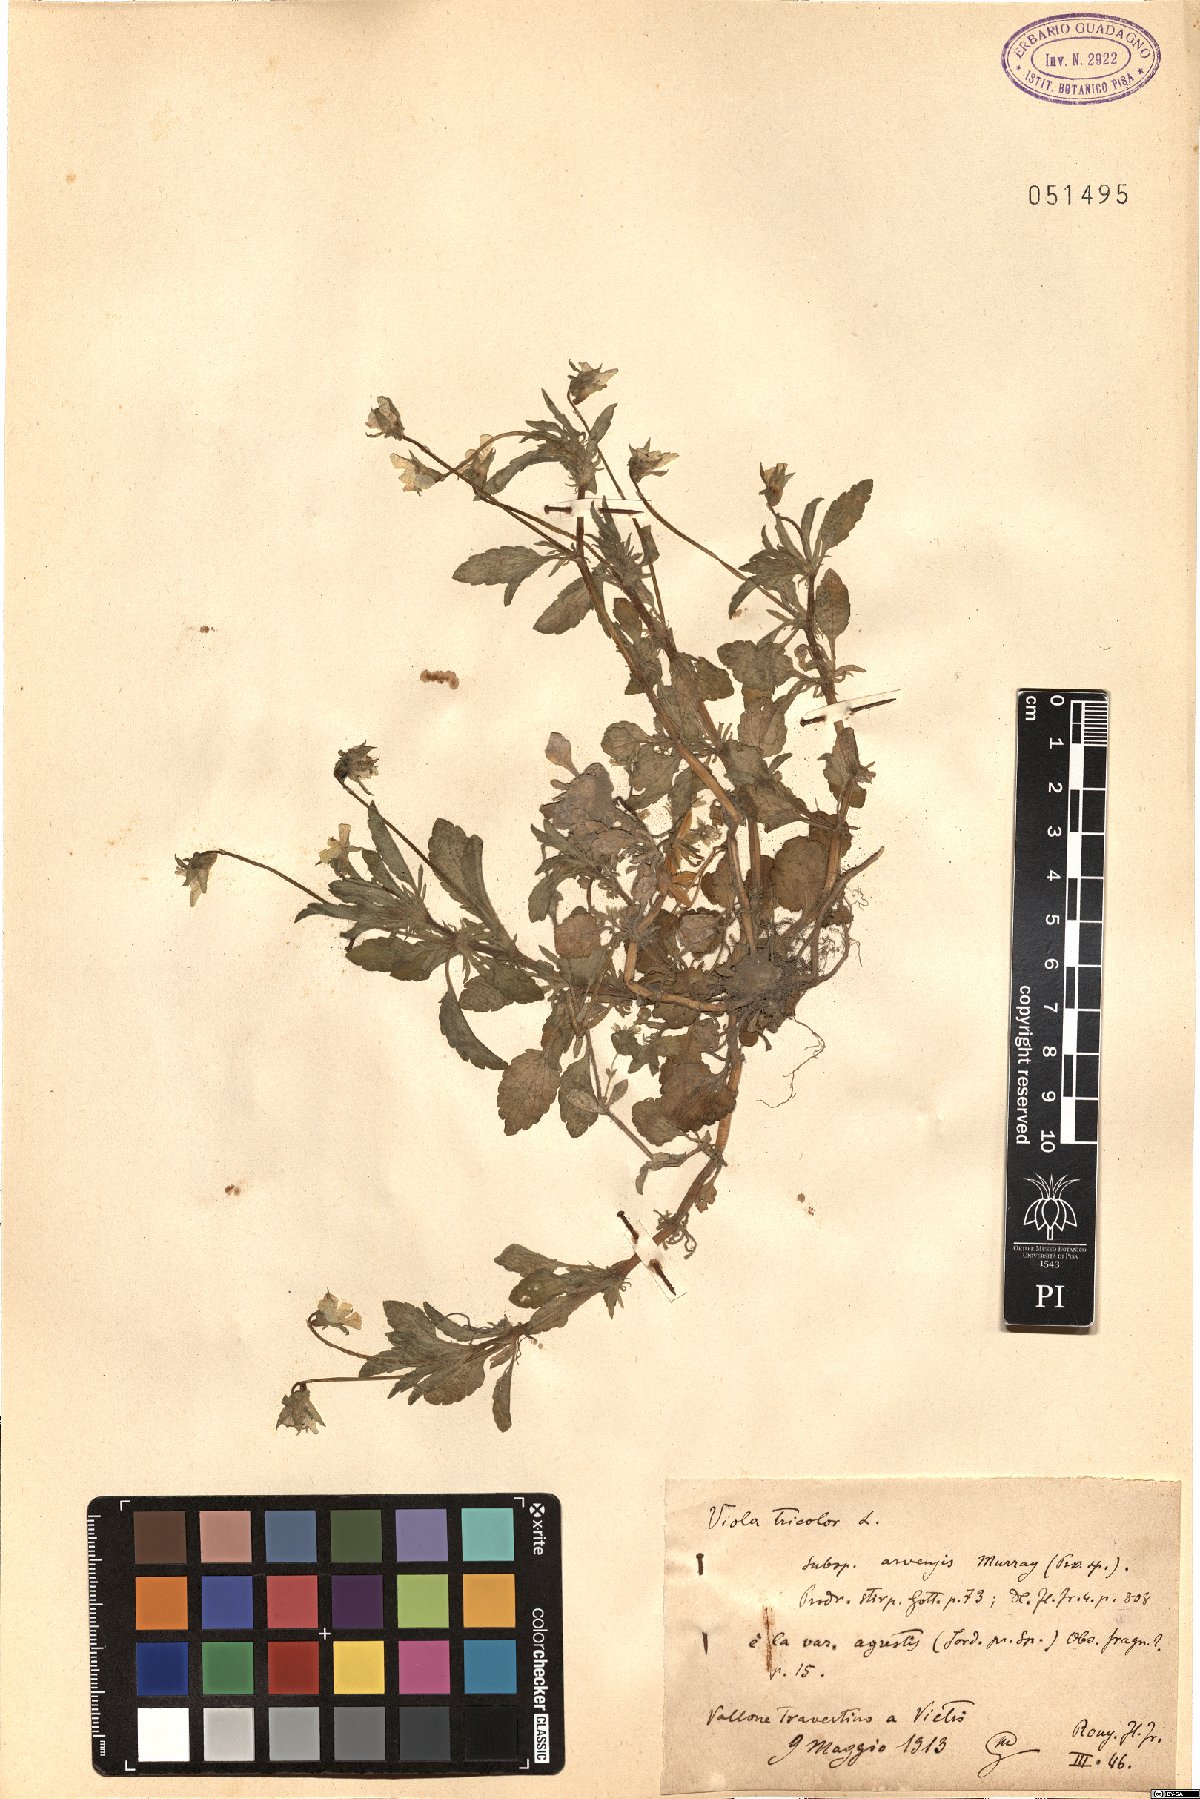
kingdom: Plantae
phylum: Tracheophyta
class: Magnoliopsida
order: Malpighiales
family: Violaceae
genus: Viola
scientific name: Viola arvensis
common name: Field pansy
